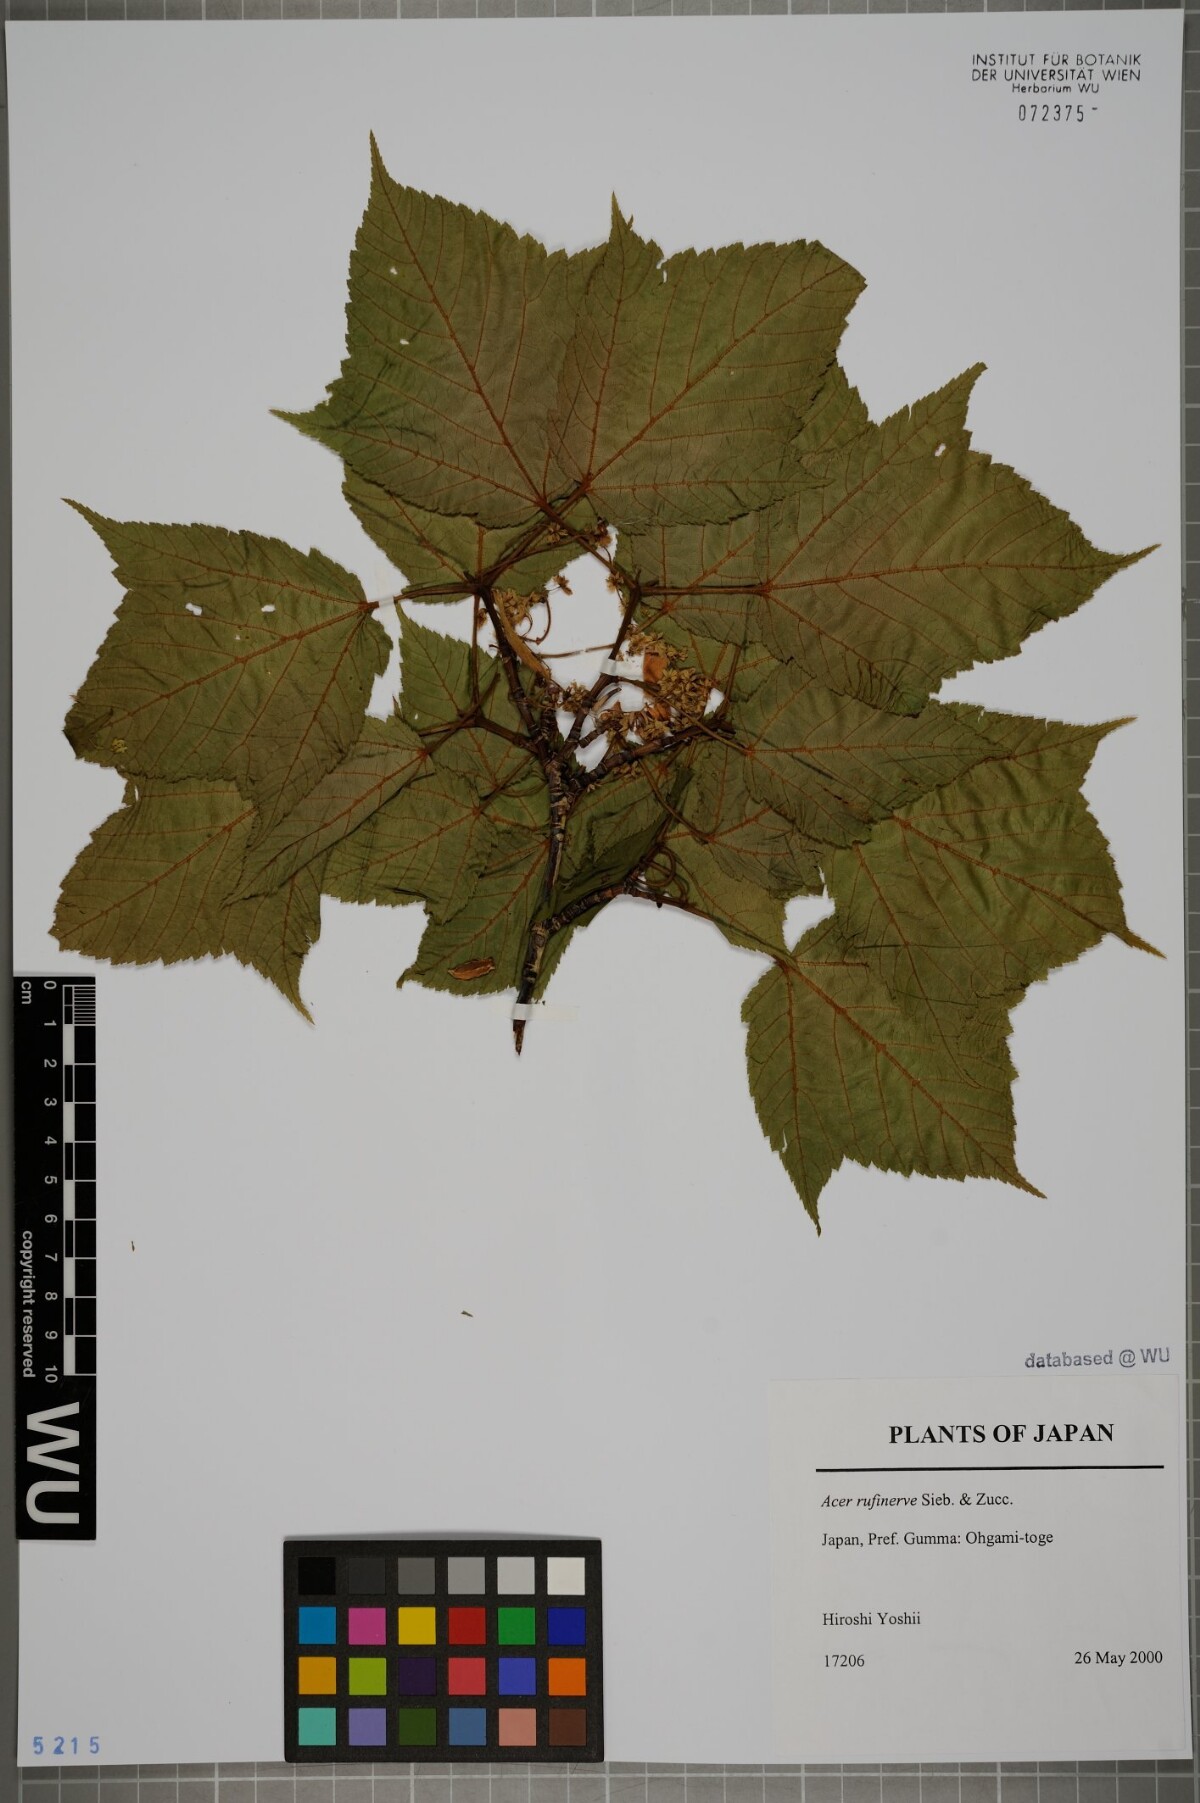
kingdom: Plantae
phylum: Tracheophyta
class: Magnoliopsida
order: Sapindales
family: Sapindaceae
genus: Acer
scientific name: Acer rufinerve
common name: Red veined maple
